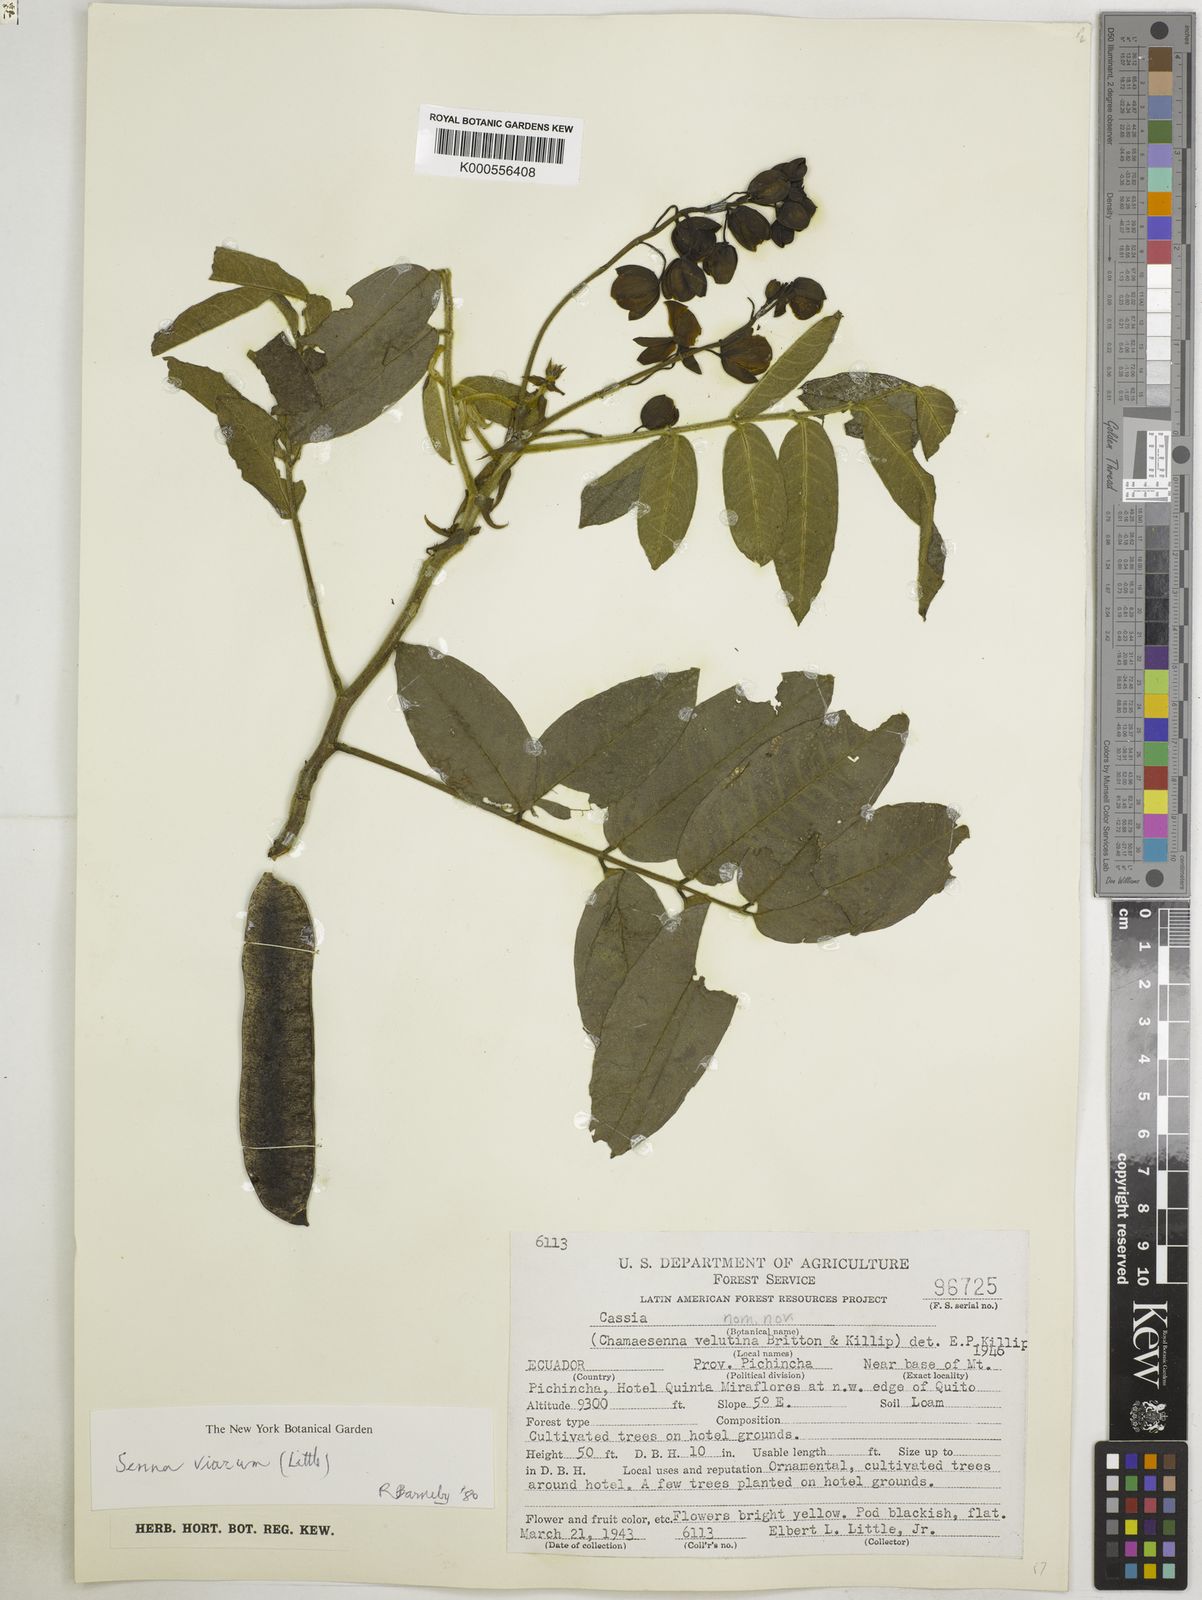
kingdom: Plantae
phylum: Tracheophyta
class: Magnoliopsida
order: Fabales
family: Fabaceae
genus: Senna
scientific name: Senna viarum
